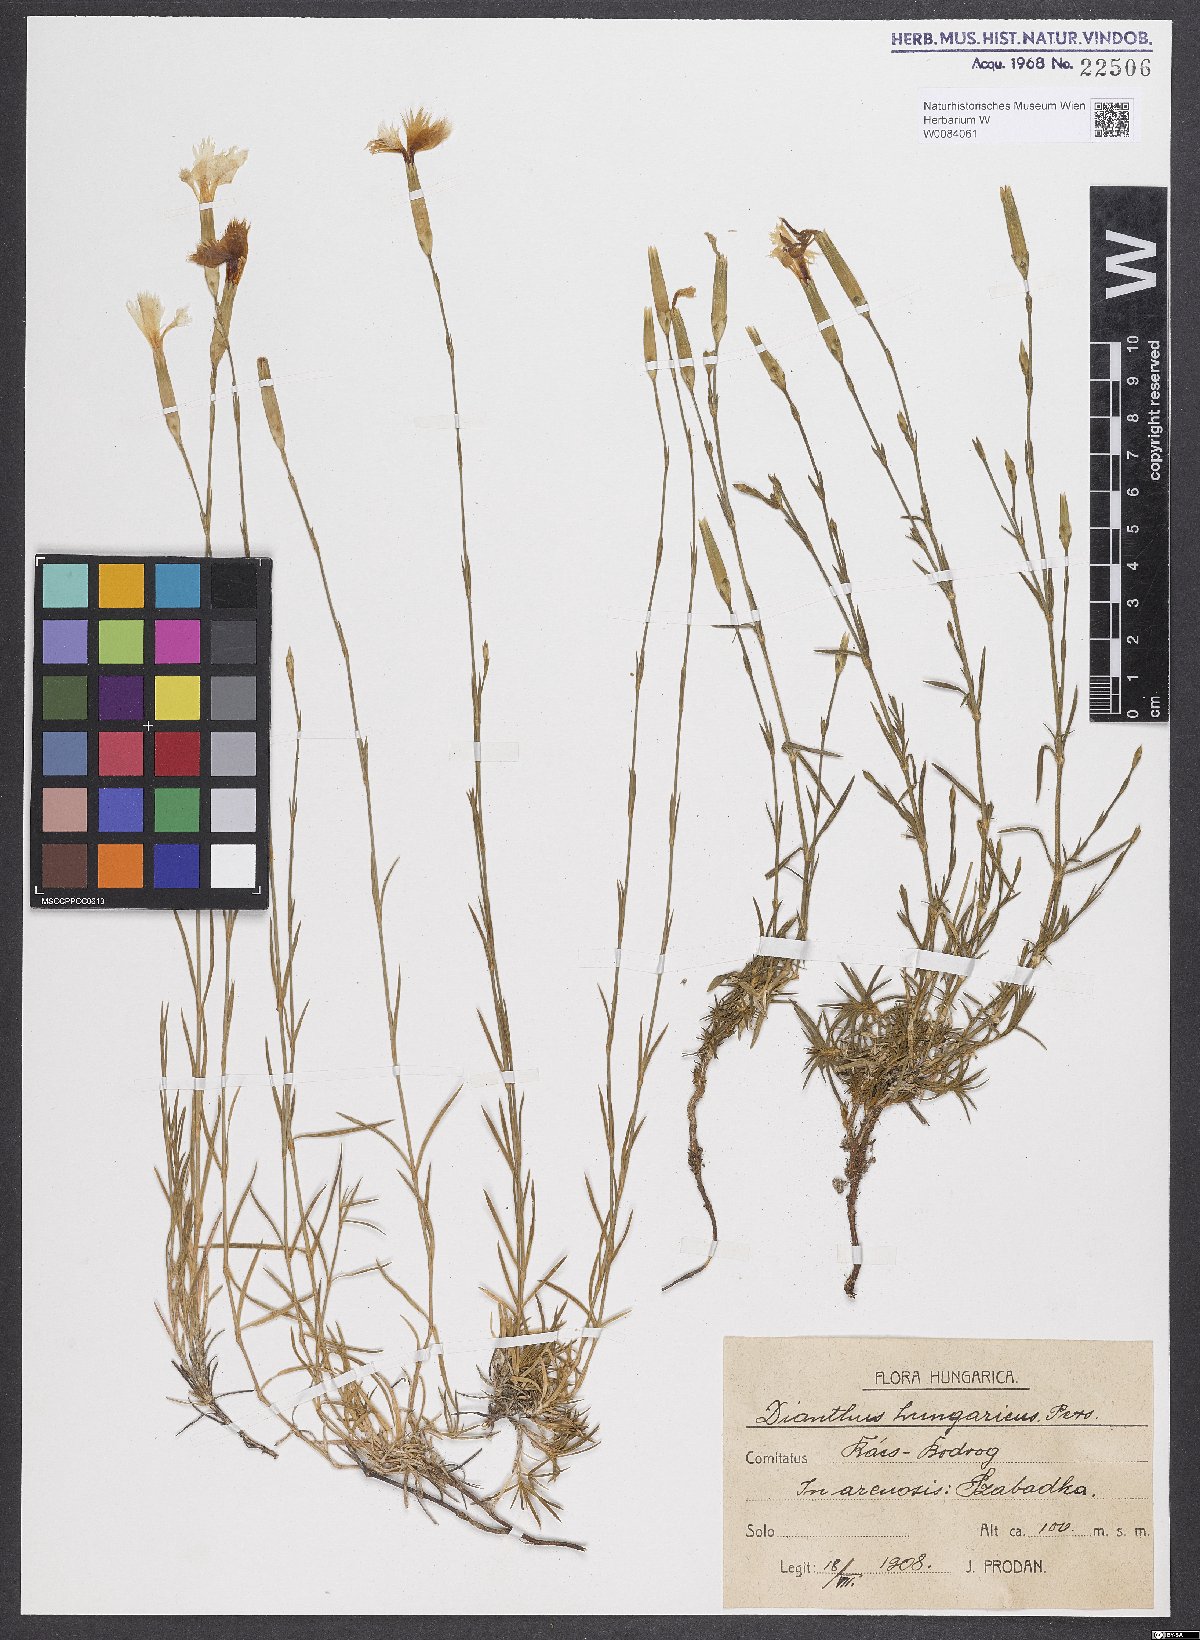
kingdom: Plantae
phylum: Tracheophyta
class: Magnoliopsida
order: Caryophyllales
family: Caryophyllaceae
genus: Dianthus
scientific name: Dianthus plumarius
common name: Pink
